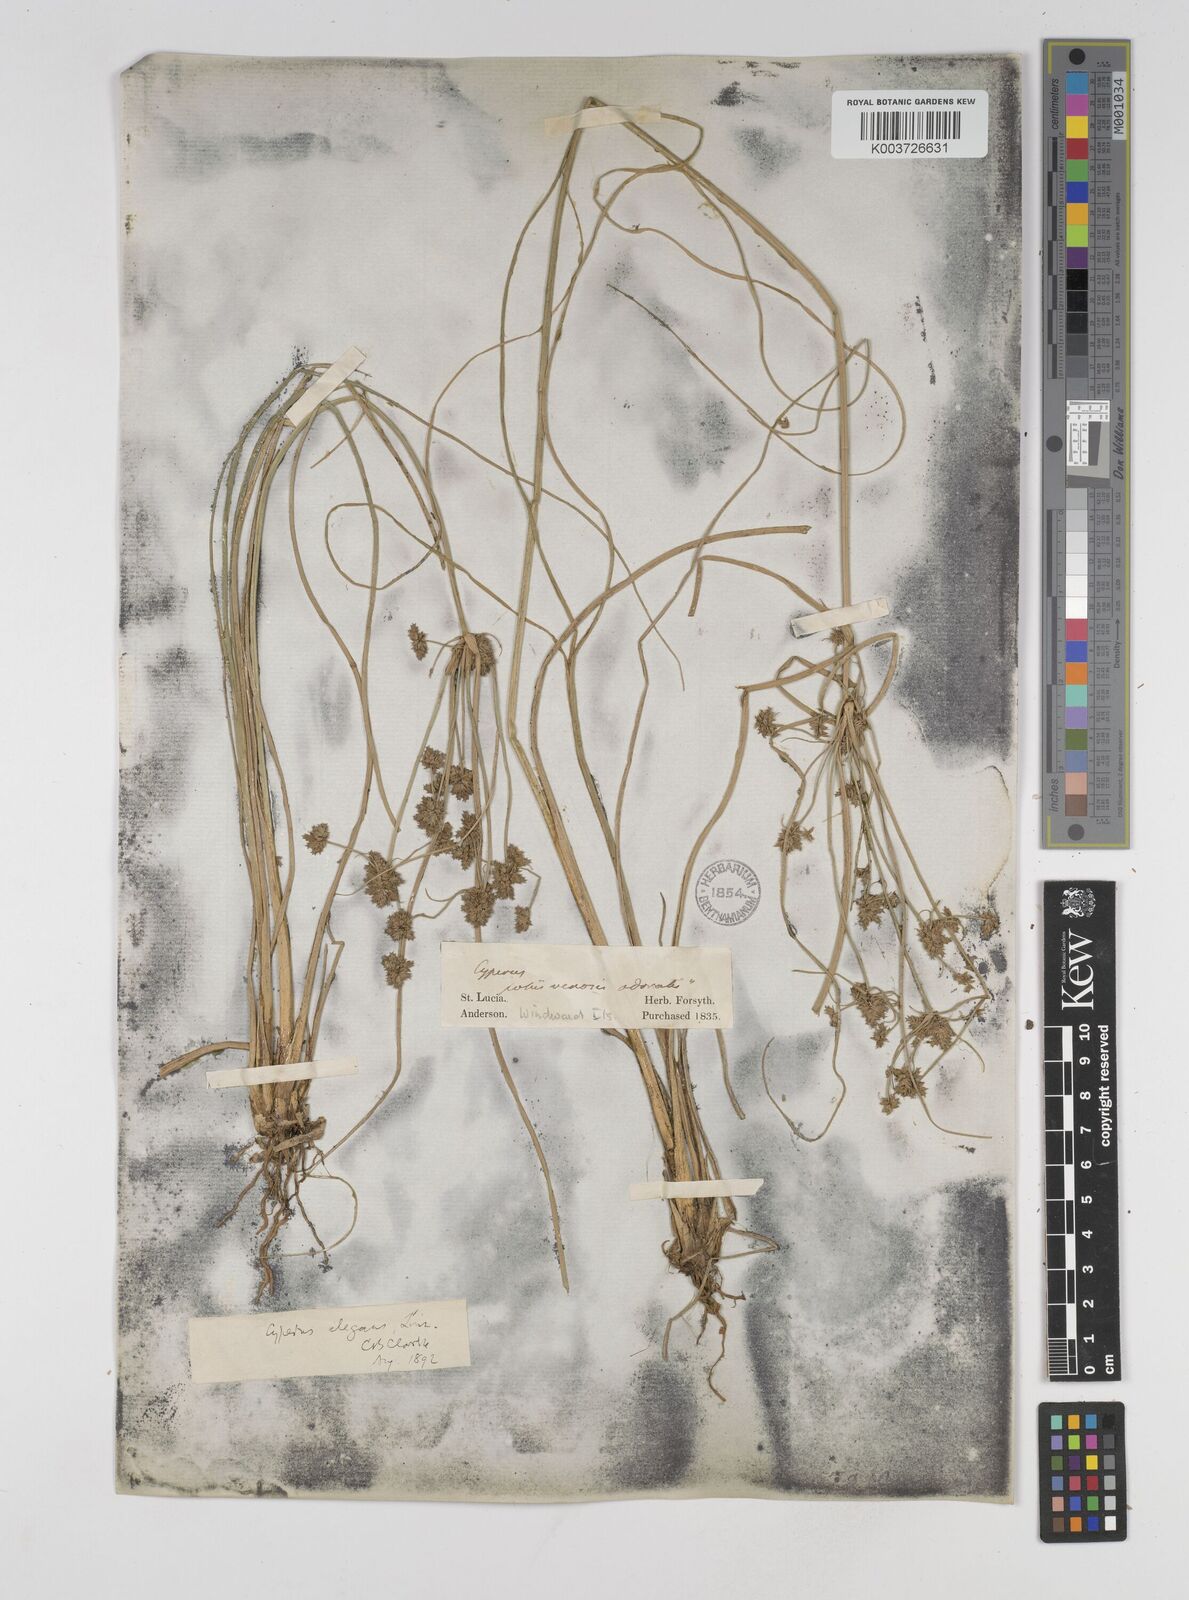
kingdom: Plantae
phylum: Tracheophyta
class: Liliopsida
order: Poales
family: Cyperaceae
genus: Cyperus
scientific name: Cyperus elegans
